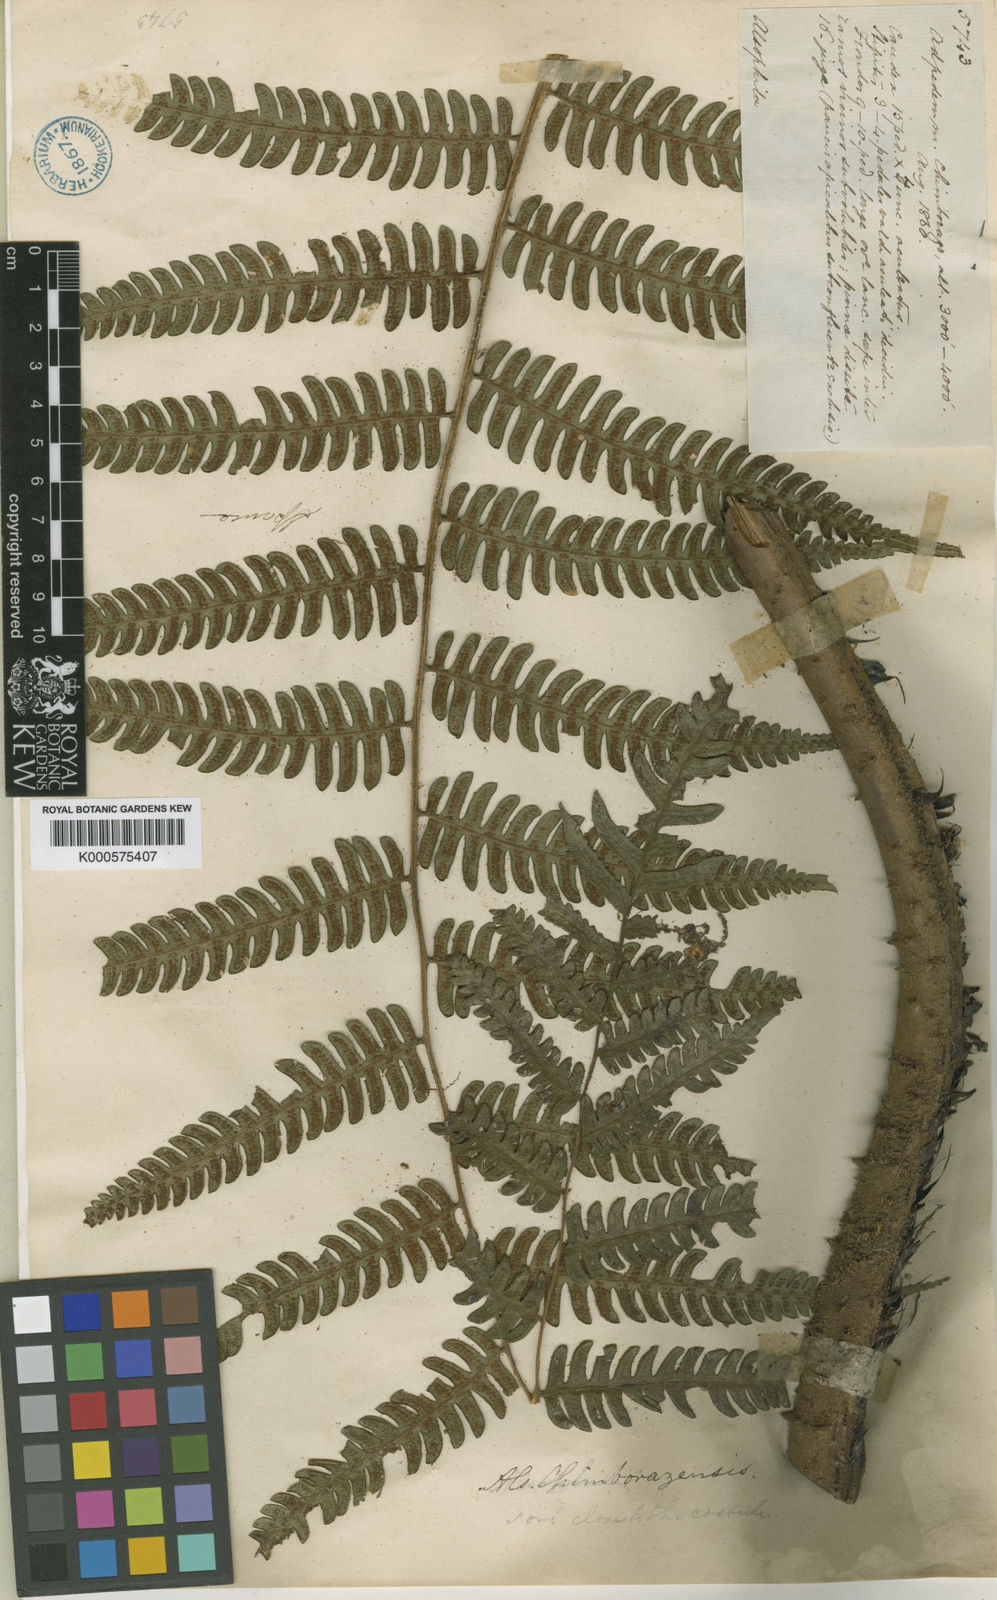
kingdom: Plantae
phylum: Tracheophyta
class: Polypodiopsida
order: Cyatheales
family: Cyatheaceae
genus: Cyathea
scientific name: Cyathea chimborazensis
